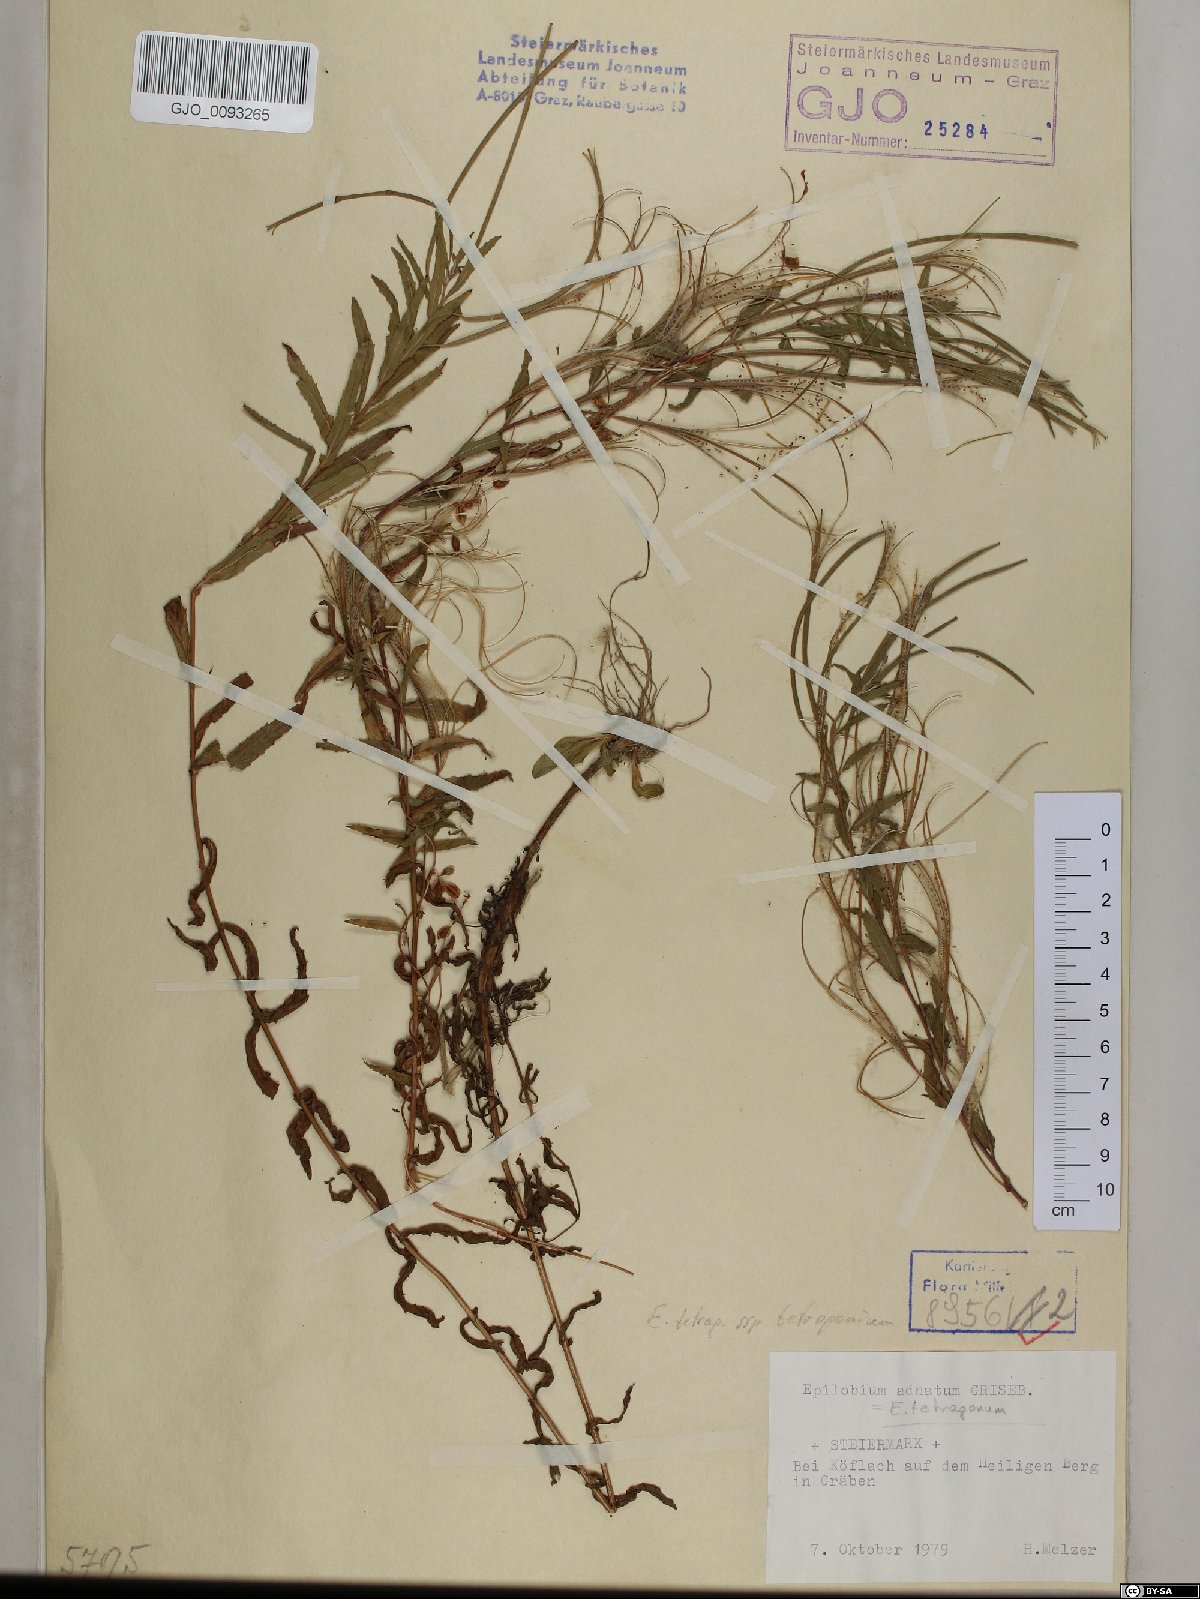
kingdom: Plantae
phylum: Tracheophyta
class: Magnoliopsida
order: Myrtales
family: Onagraceae
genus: Epilobium
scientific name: Epilobium tetragonum
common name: Square-stemmed willowherb
